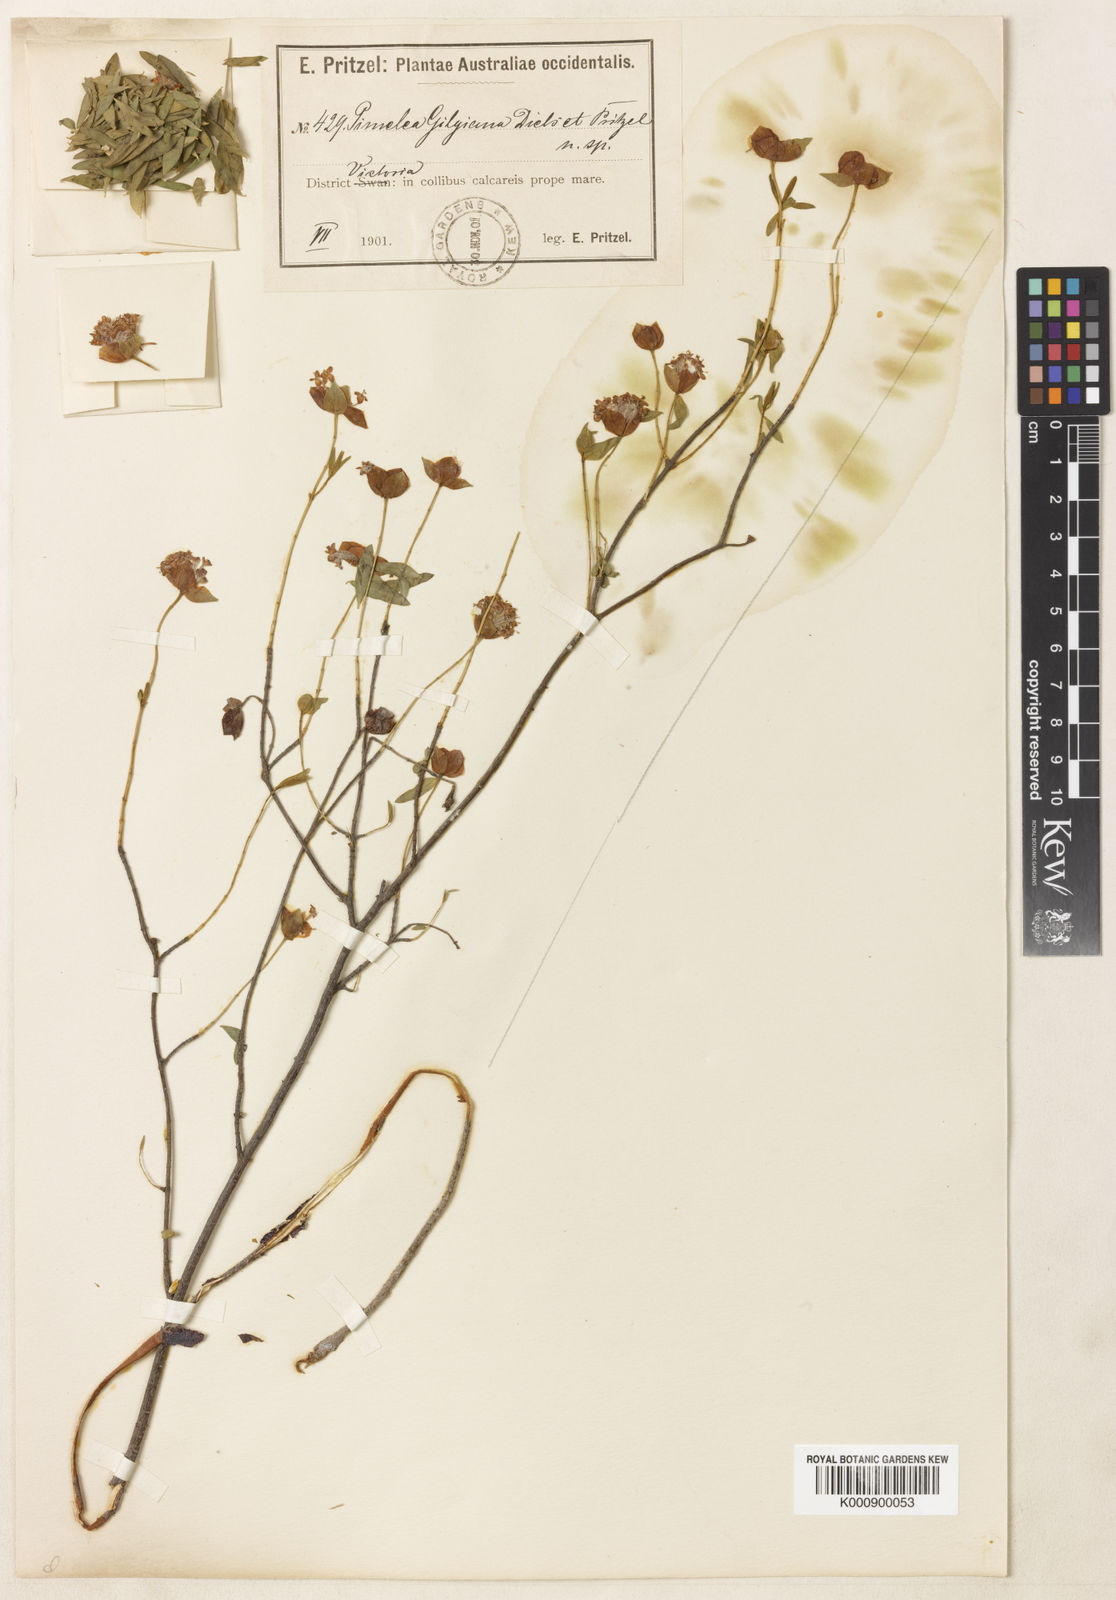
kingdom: Plantae
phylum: Tracheophyta
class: Magnoliopsida
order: Malvales
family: Thymelaeaceae
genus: Pimelea
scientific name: Pimelea gilgiana
